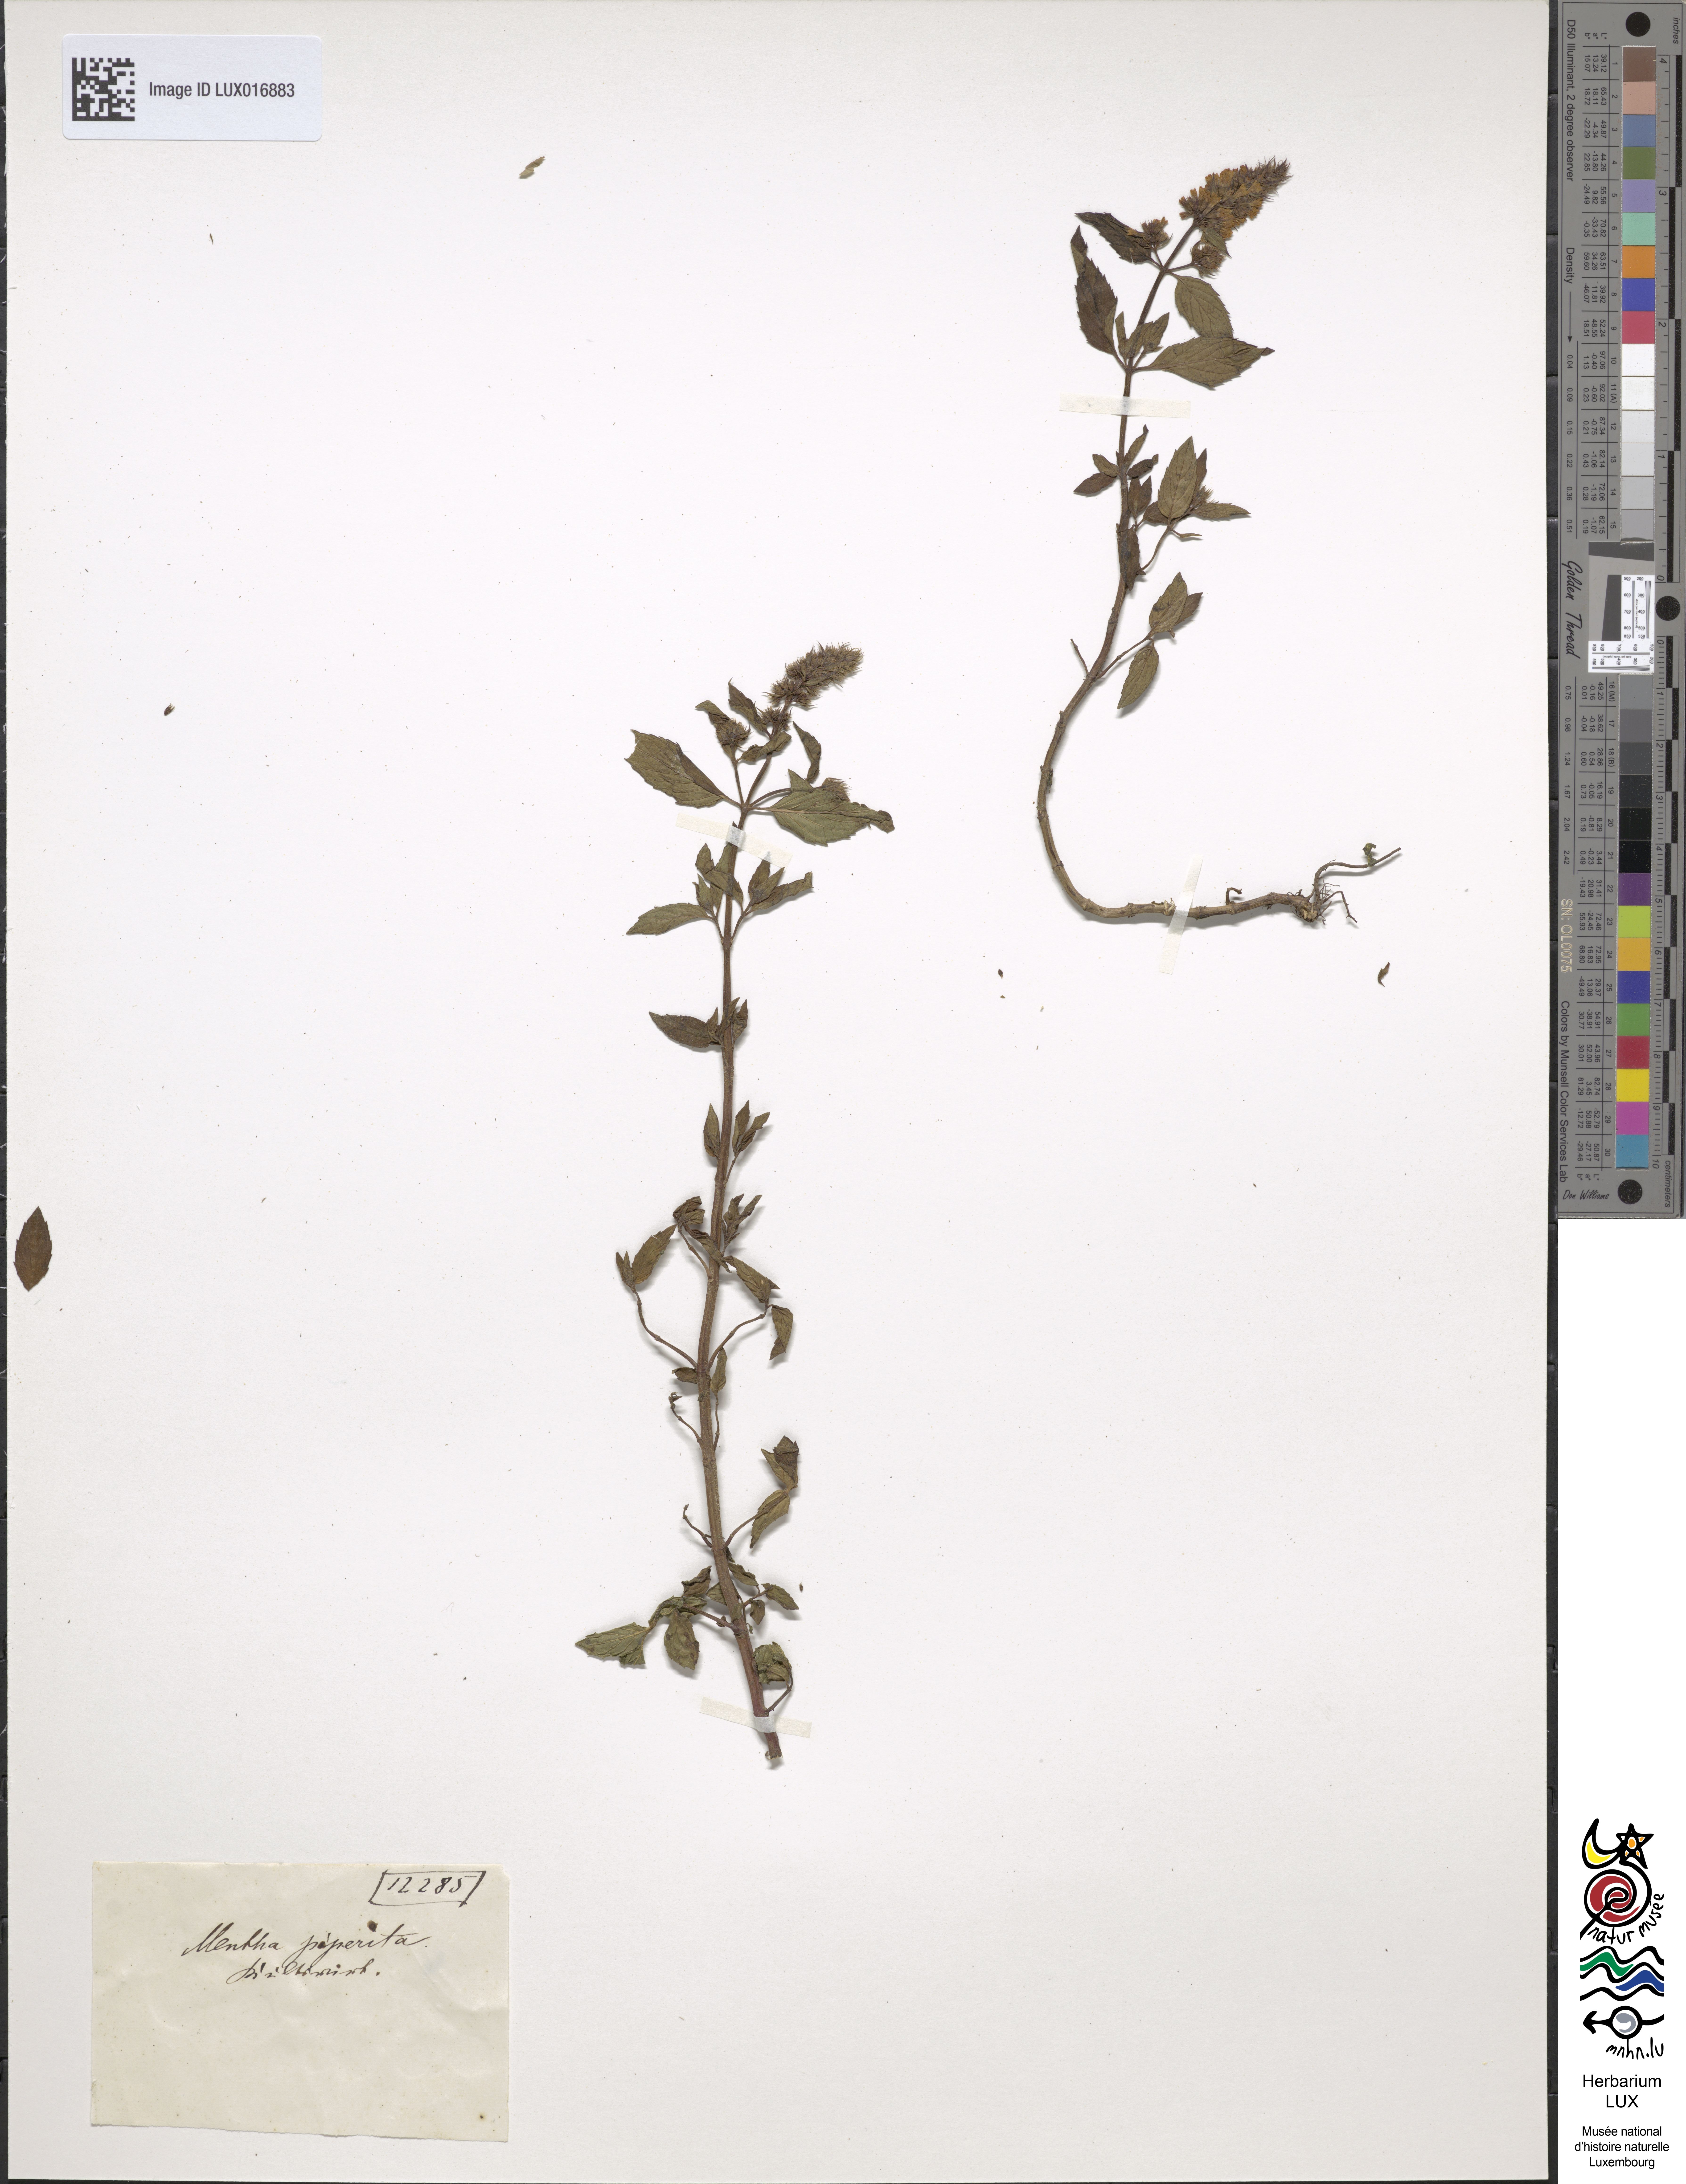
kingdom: Plantae
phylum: Tracheophyta
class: Magnoliopsida
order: Lamiales
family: Lamiaceae
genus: Mentha
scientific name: Mentha piperita
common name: Peppermint
